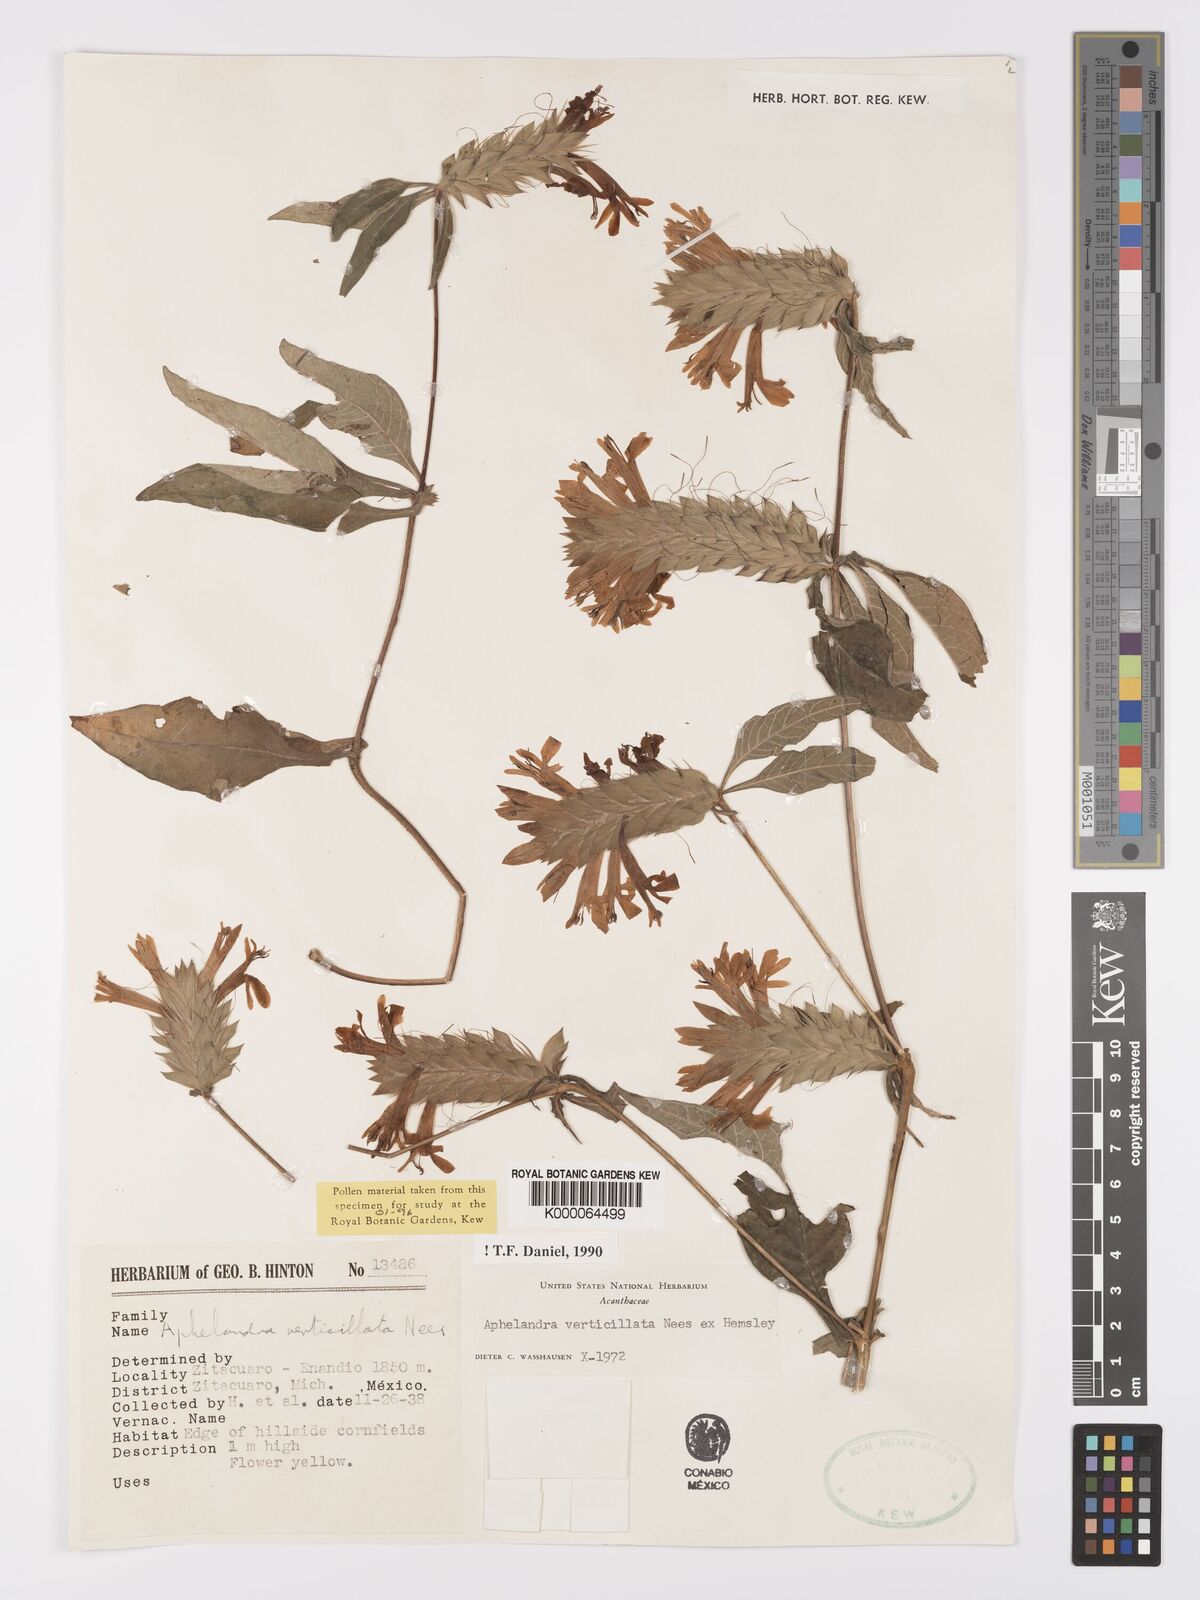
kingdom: Plantae
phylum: Tracheophyta
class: Magnoliopsida
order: Lamiales
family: Acanthaceae
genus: Holographis
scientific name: Holographis haenkeana
